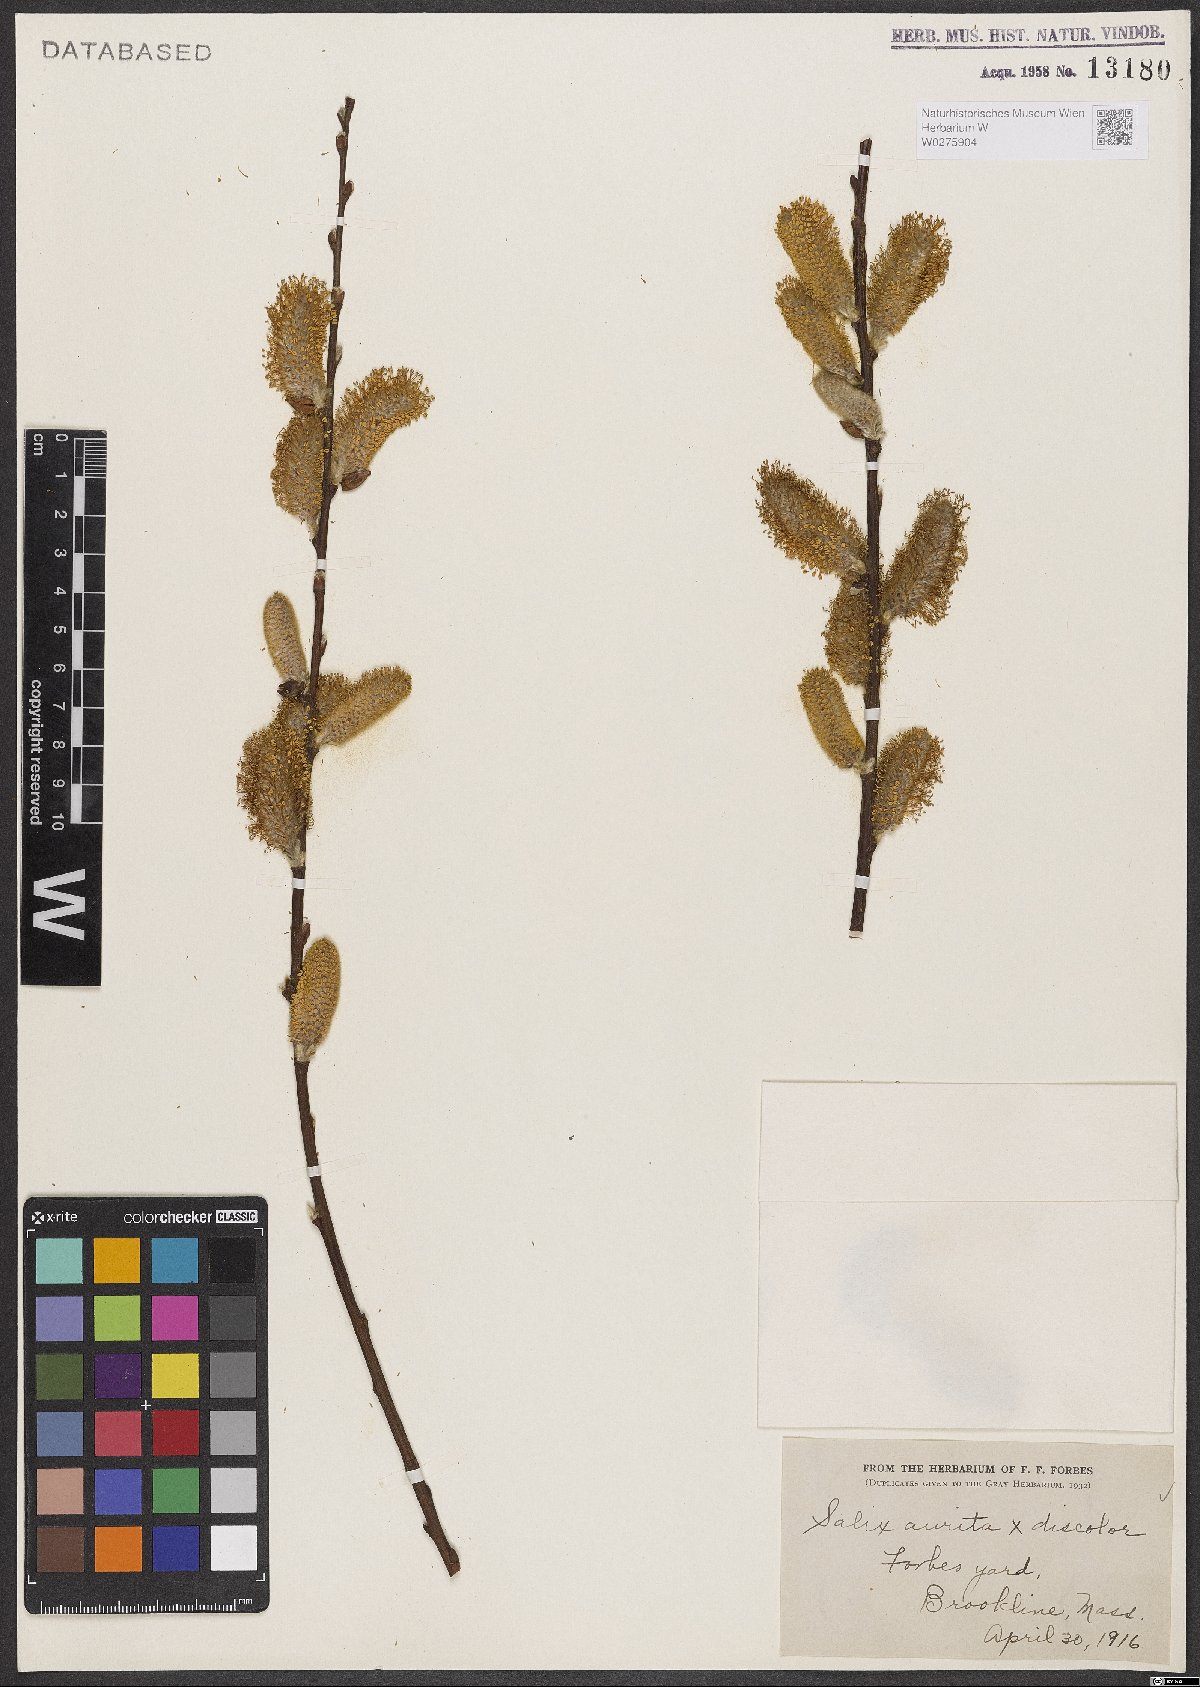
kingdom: Plantae
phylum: Tracheophyta
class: Magnoliopsida
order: Malpighiales
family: Salicaceae
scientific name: Salicaceae
